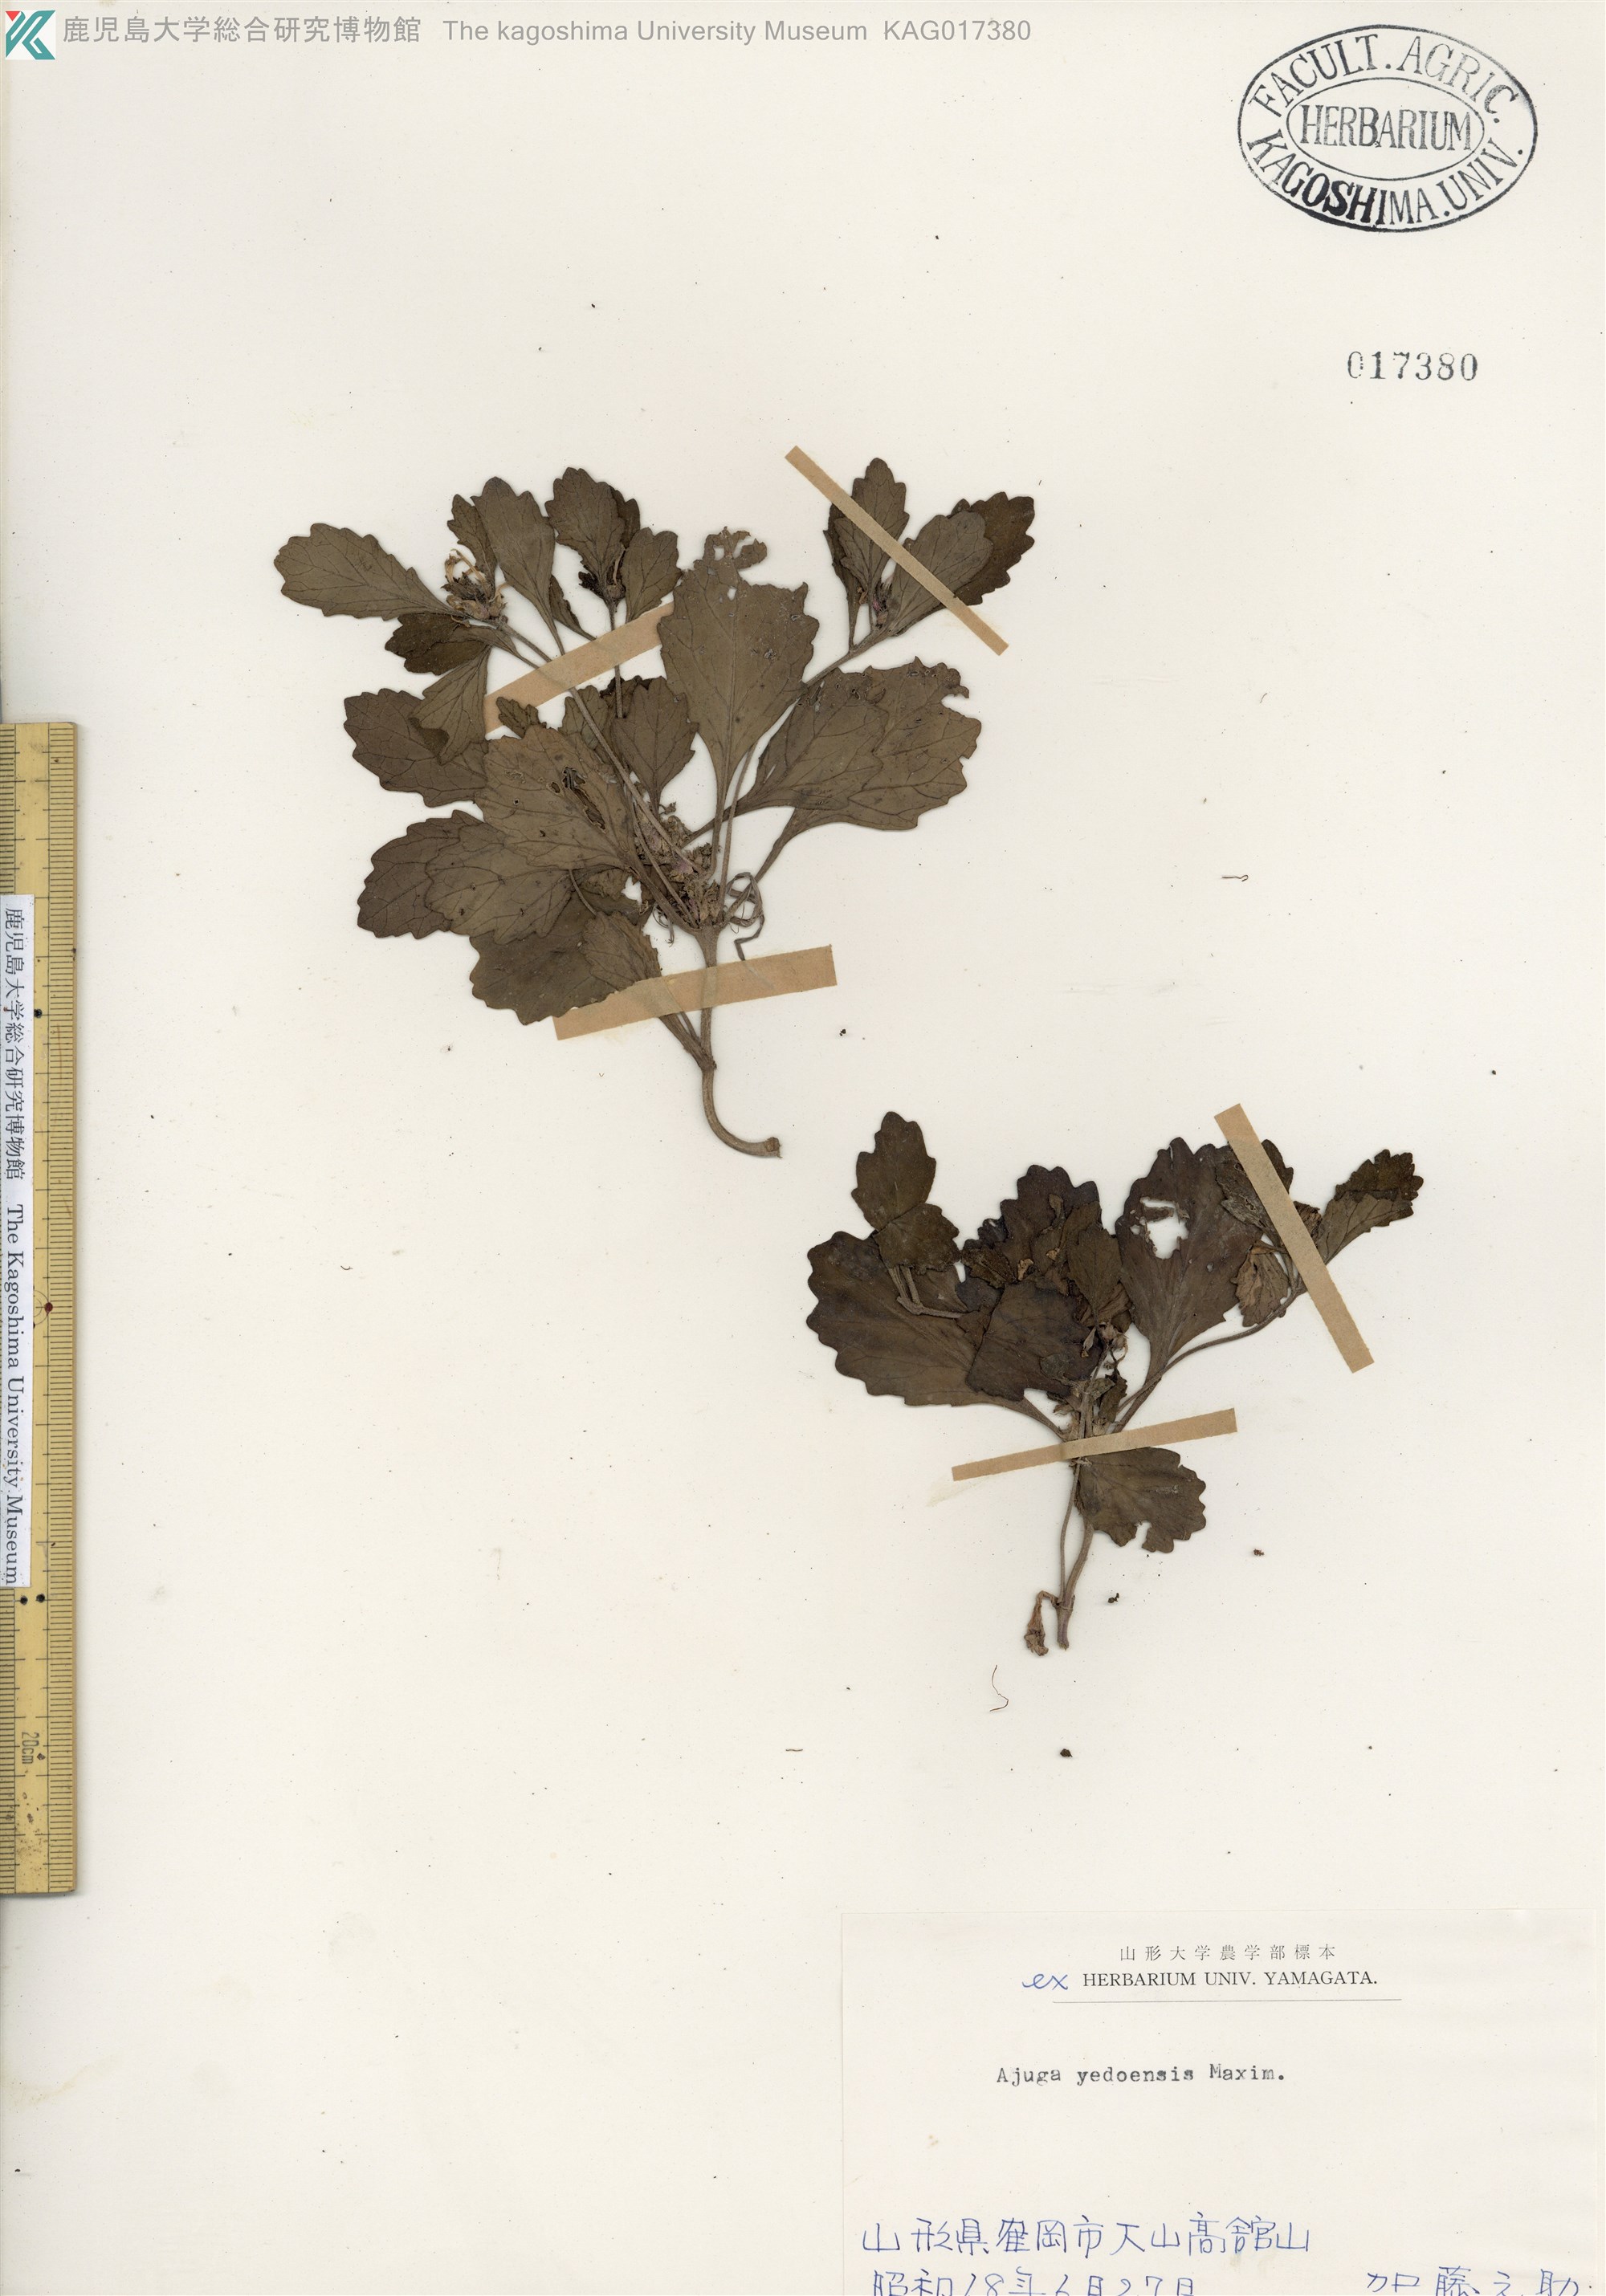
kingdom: Plantae
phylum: Tracheophyta
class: Magnoliopsida
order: Lamiales
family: Lamiaceae
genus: Ajuga
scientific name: Ajuga yesoensis
